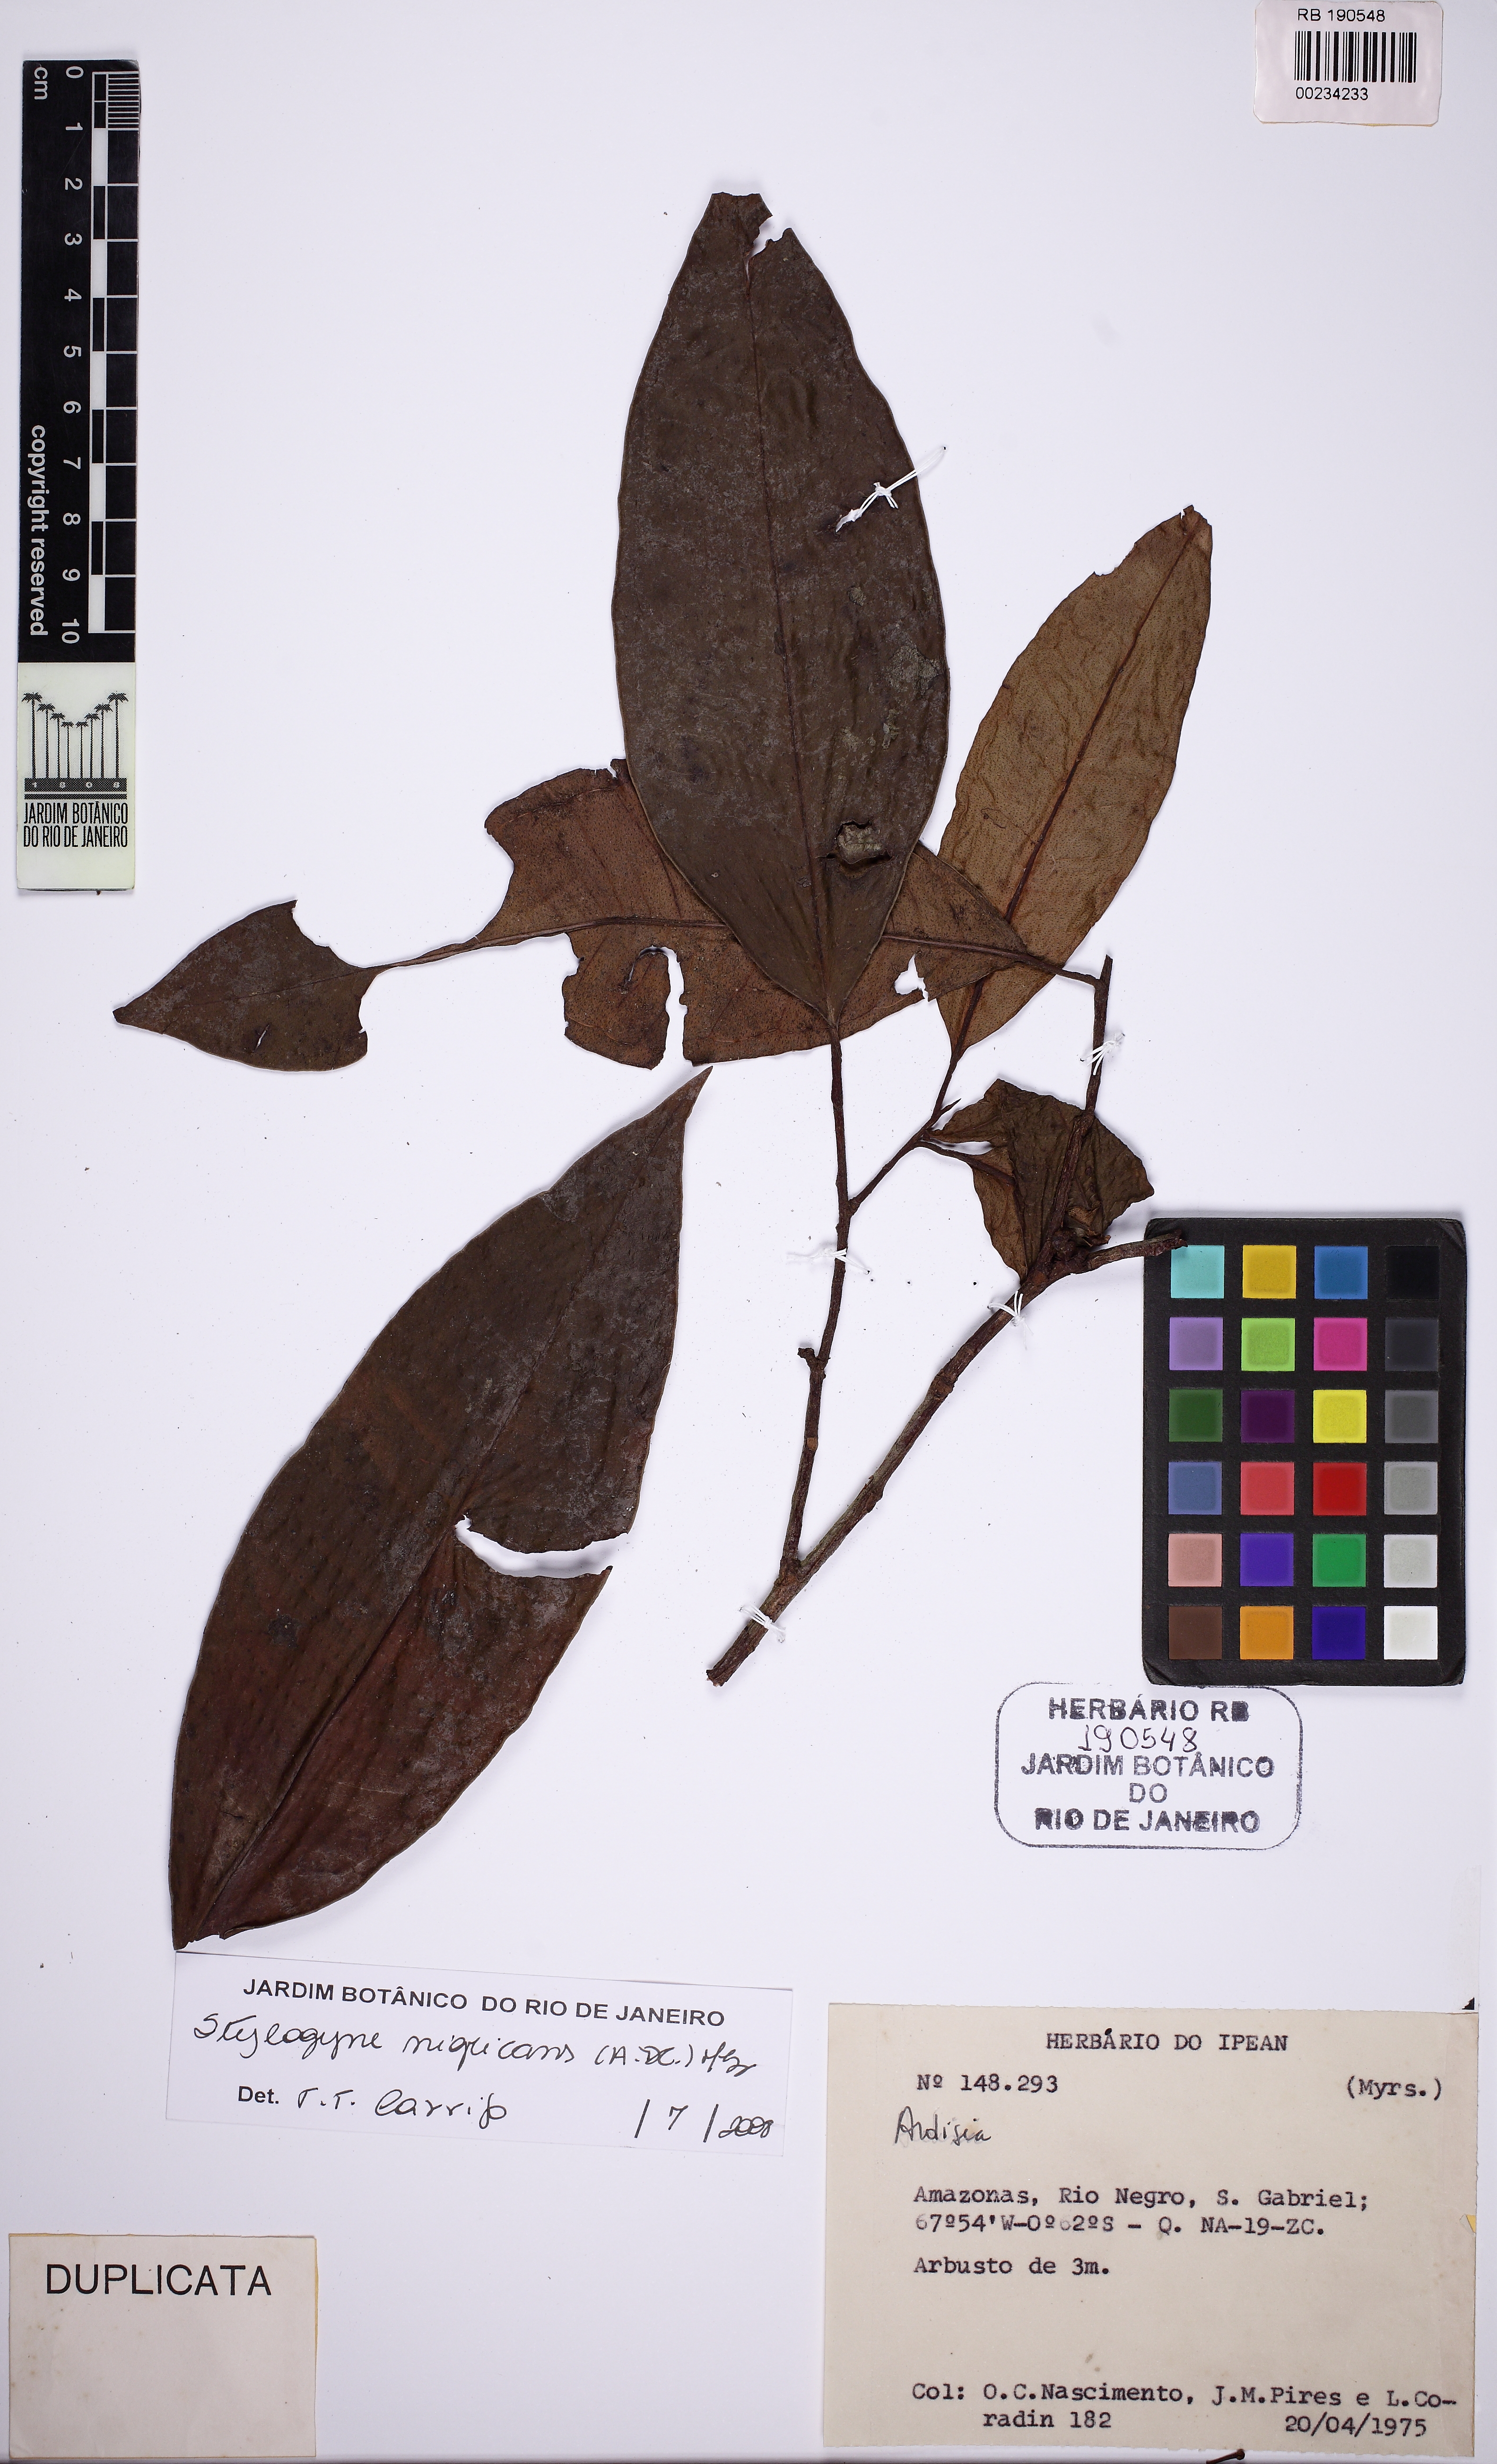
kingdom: Plantae
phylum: Tracheophyta
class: Magnoliopsida
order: Ericales
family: Primulaceae
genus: Stylogyne
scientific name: Stylogyne nigricans
